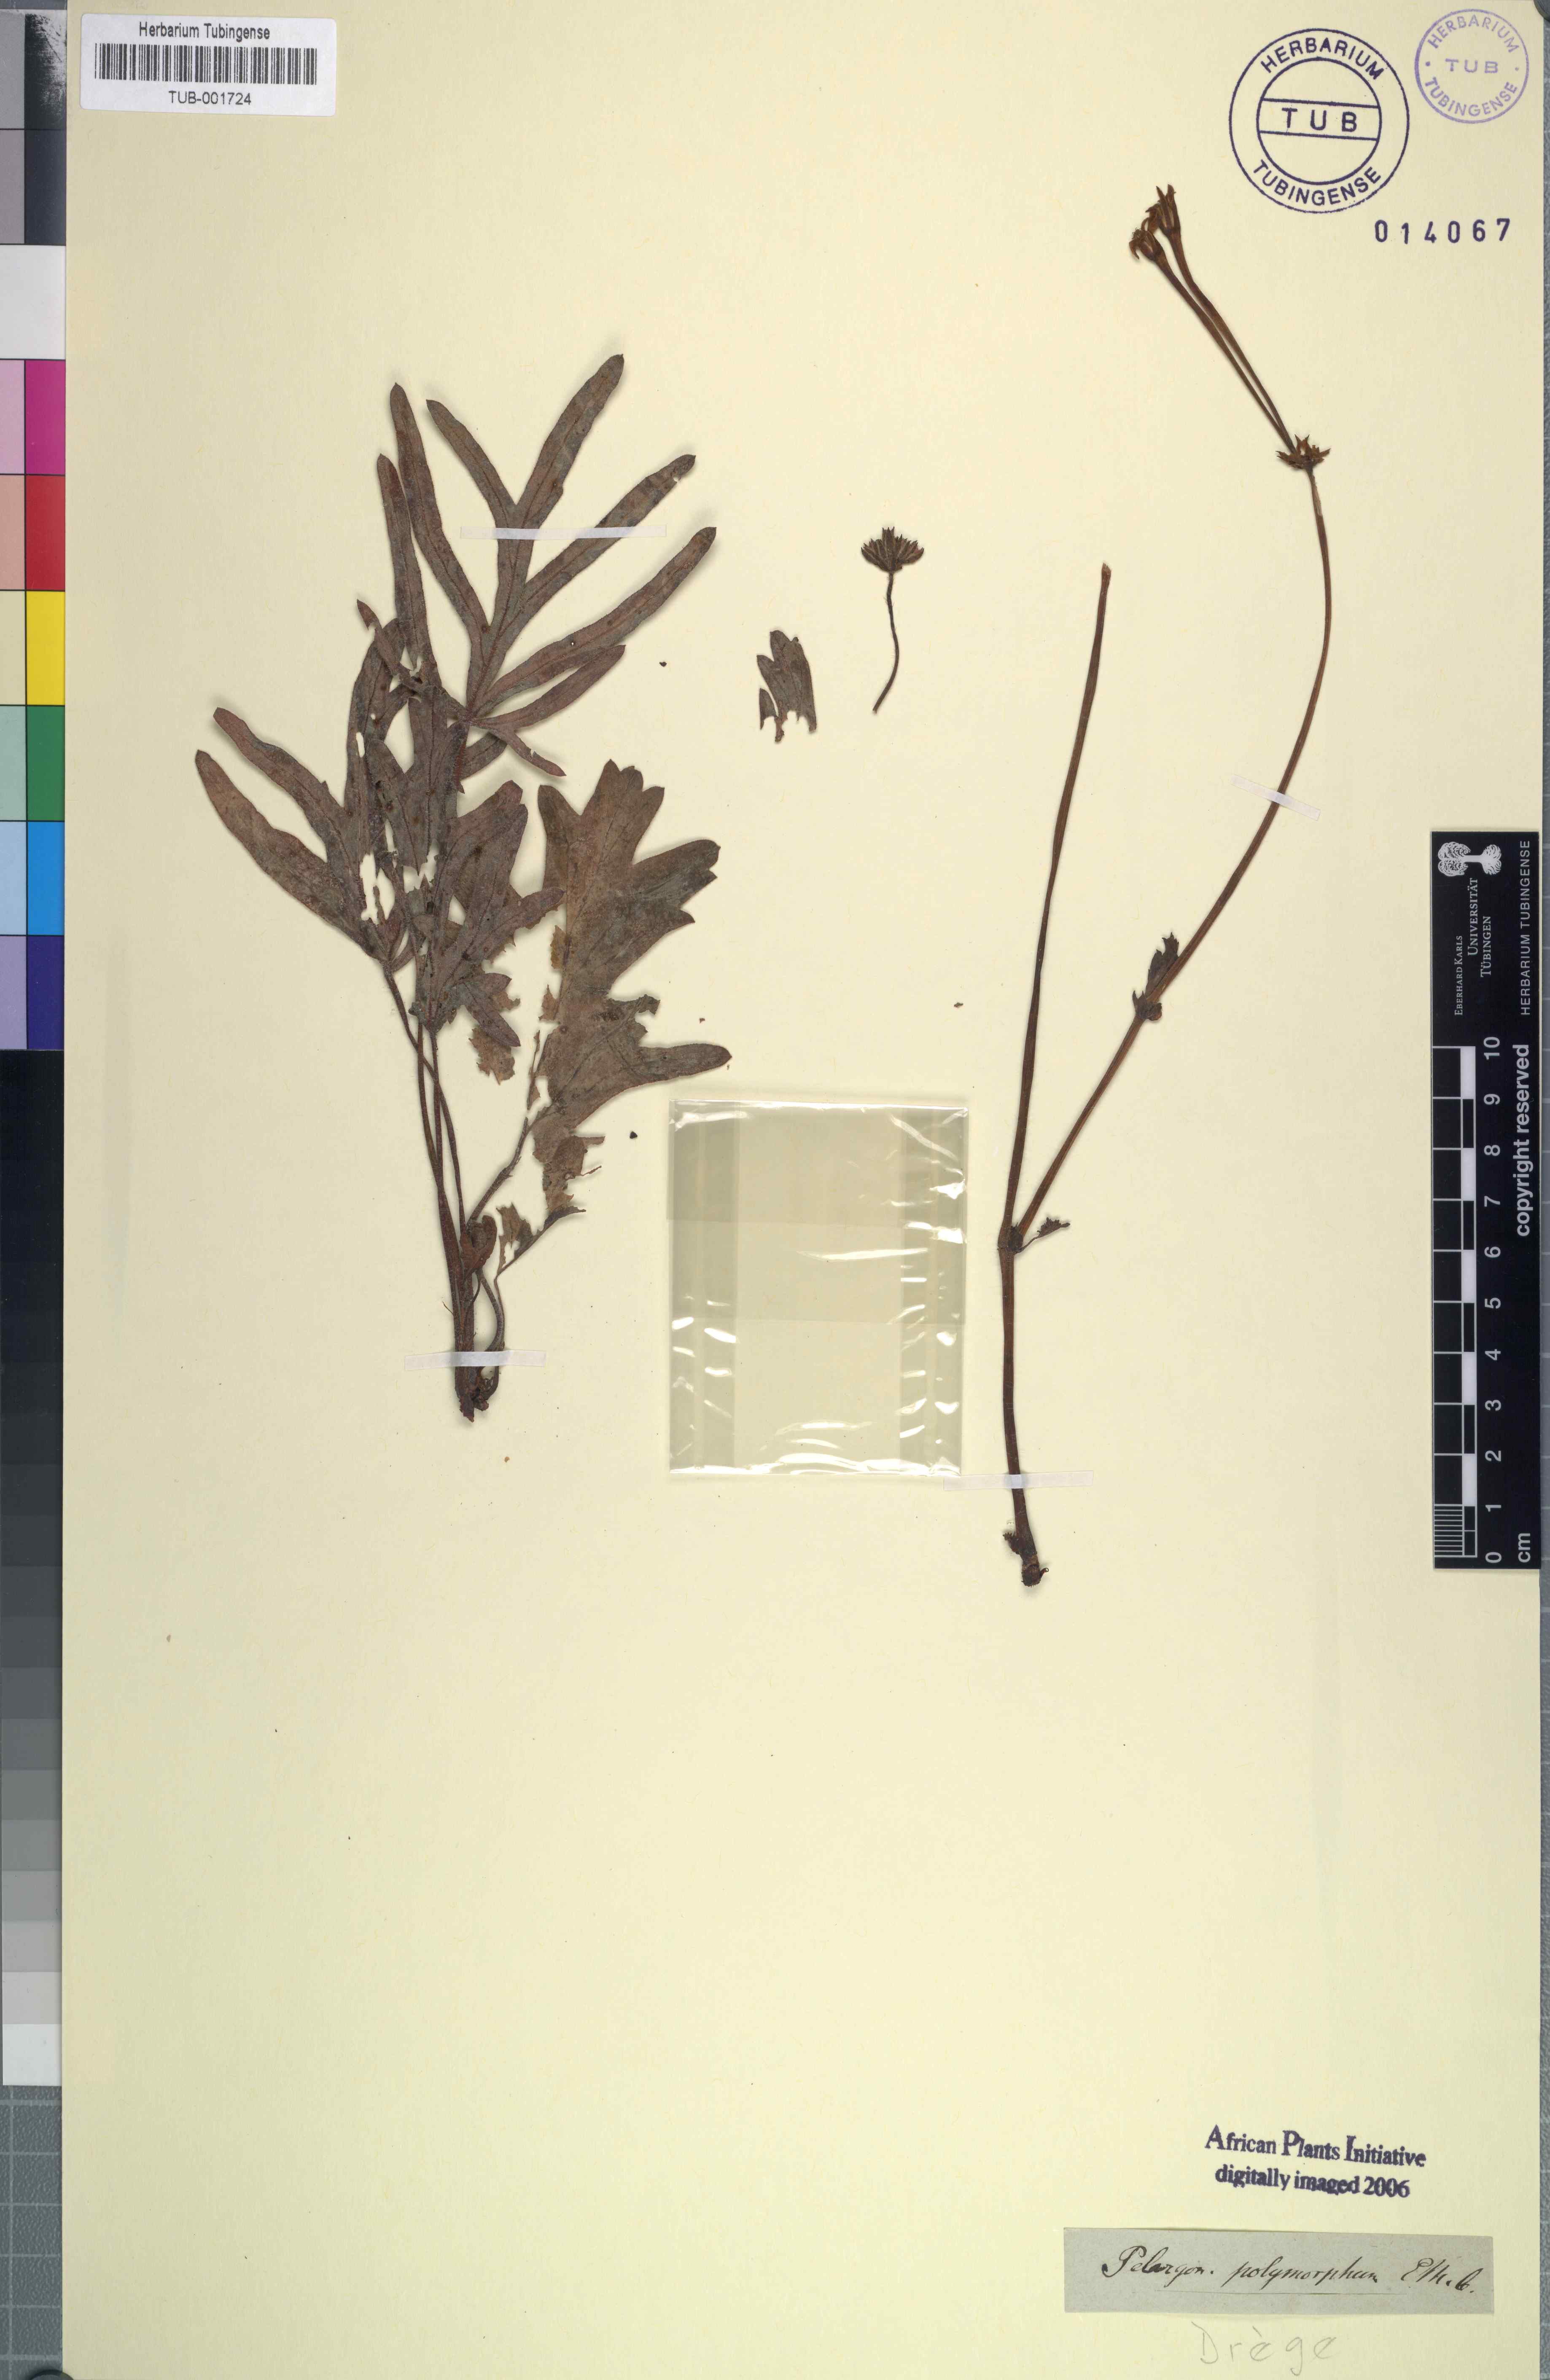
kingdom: Plantae
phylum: Tracheophyta
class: Magnoliopsida
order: Geraniales
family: Geraniaceae
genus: Pelargonium
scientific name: Pelargonium luridum
